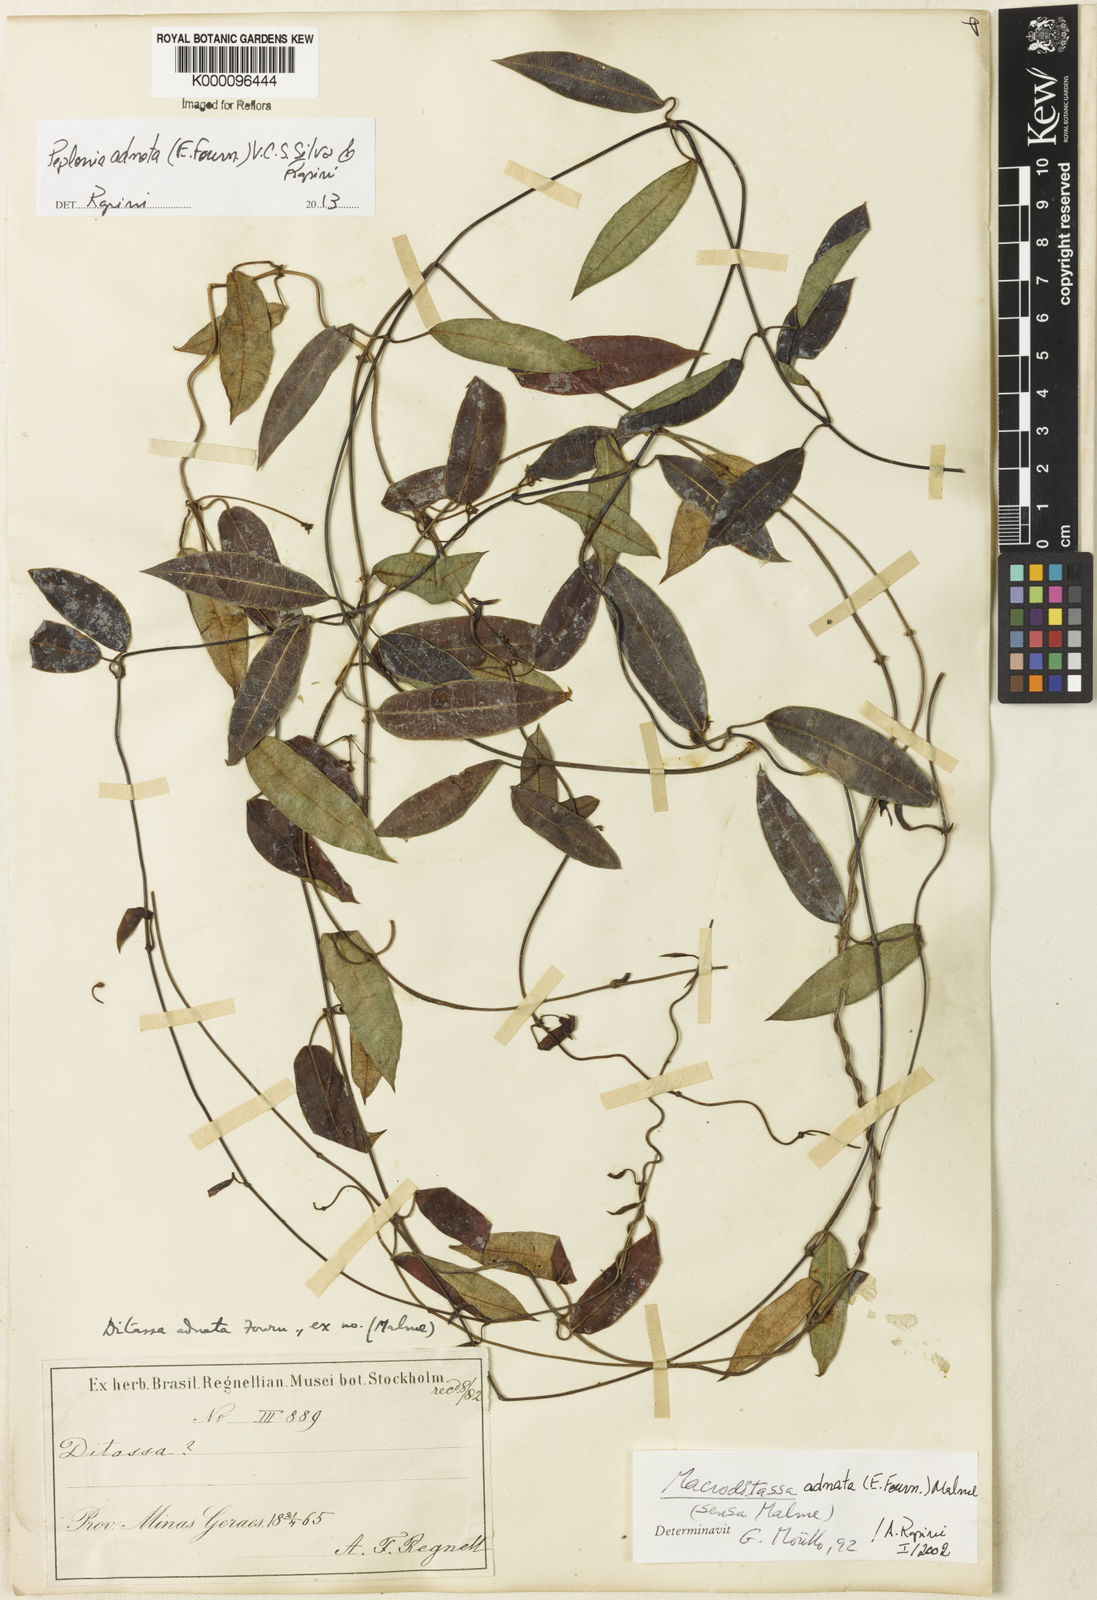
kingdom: Plantae
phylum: Tracheophyta
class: Magnoliopsida
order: Gentianales
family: Apocynaceae
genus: Peplonia
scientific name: Peplonia adnata
